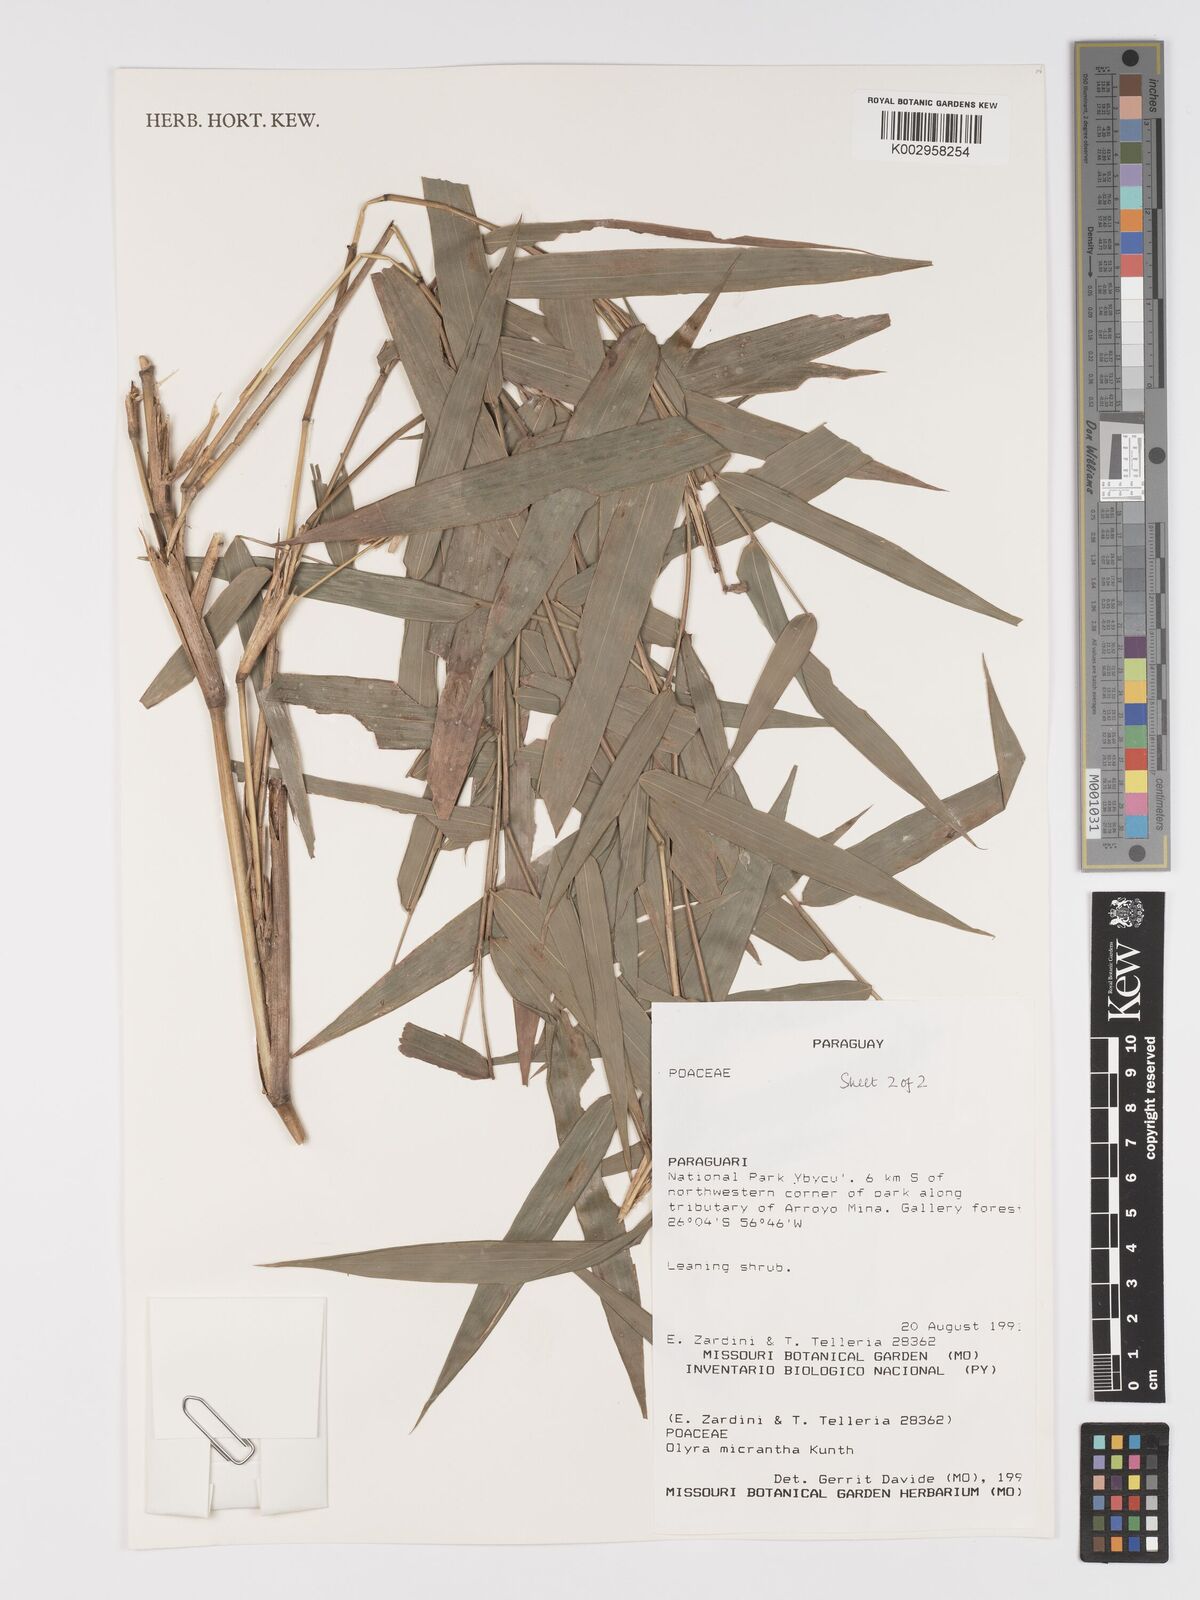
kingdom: Plantae
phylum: Tracheophyta
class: Liliopsida
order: Poales
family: Poaceae
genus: Taquara
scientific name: Taquara micrantha
